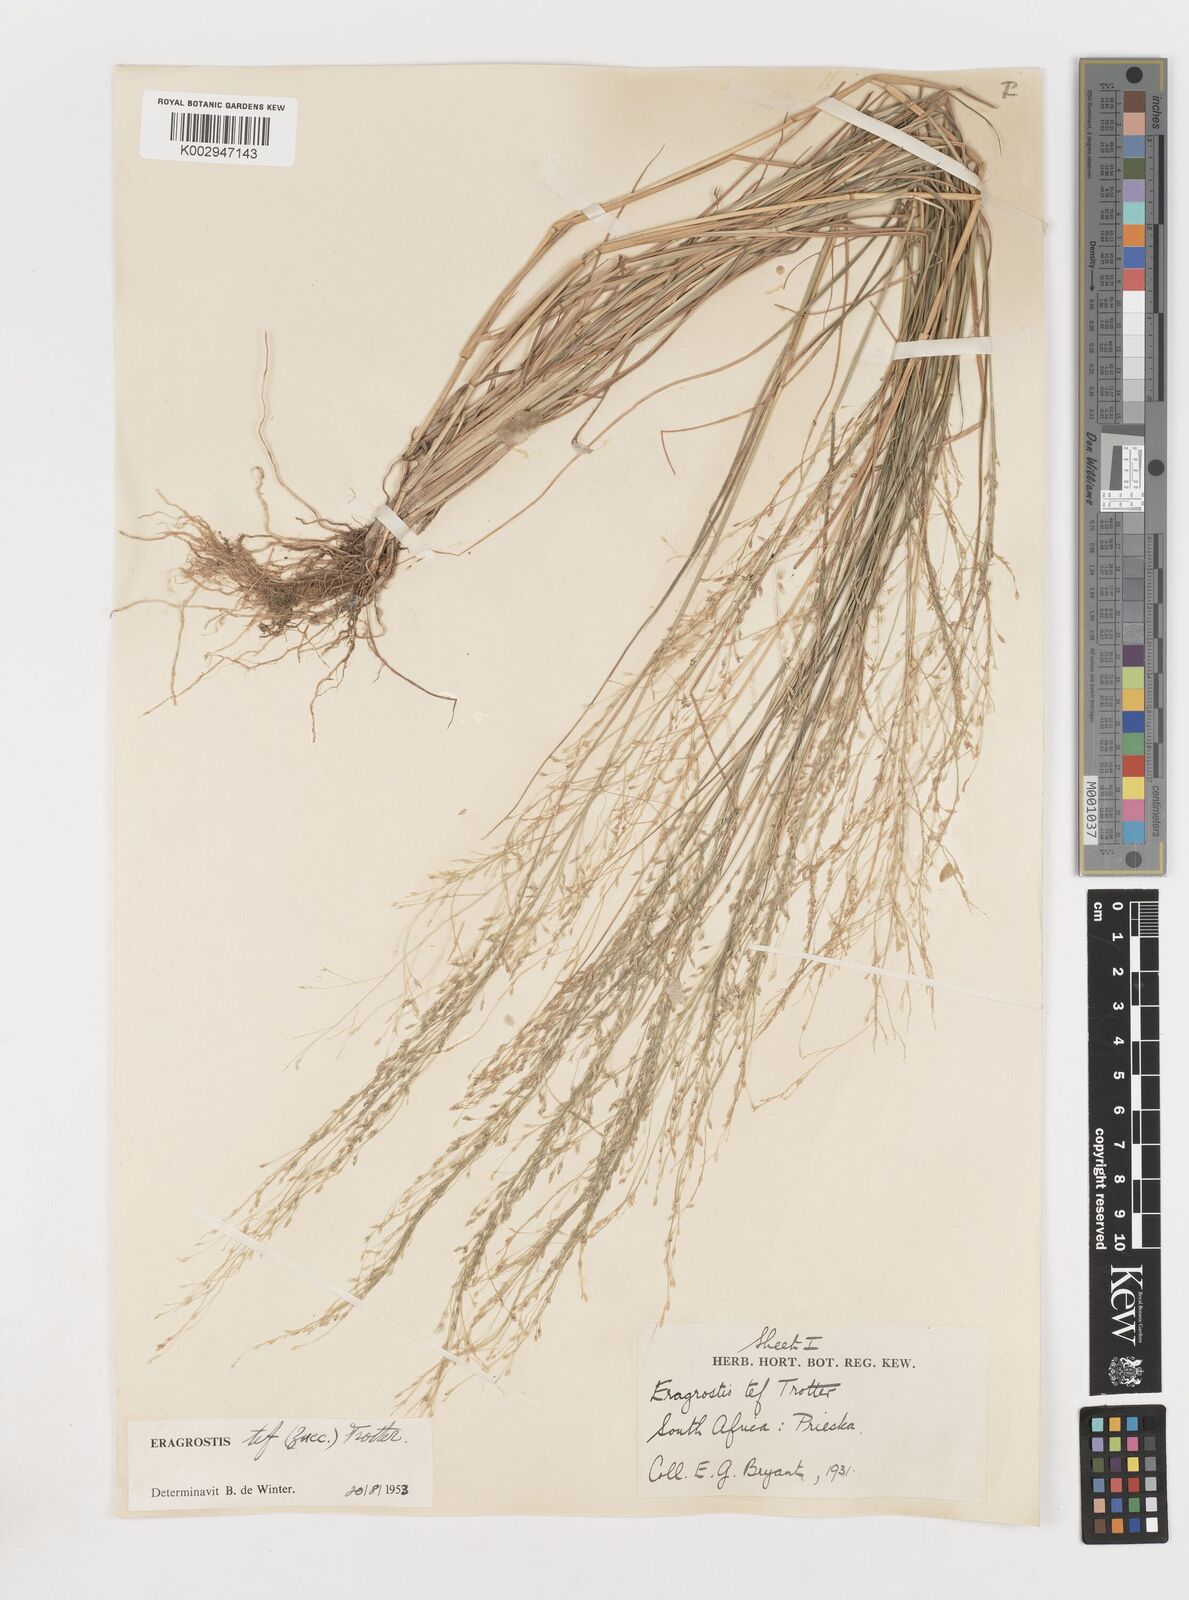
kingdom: Plantae
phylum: Tracheophyta
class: Liliopsida
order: Poales
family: Poaceae
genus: Eragrostis
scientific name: Eragrostis tef
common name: Teff
